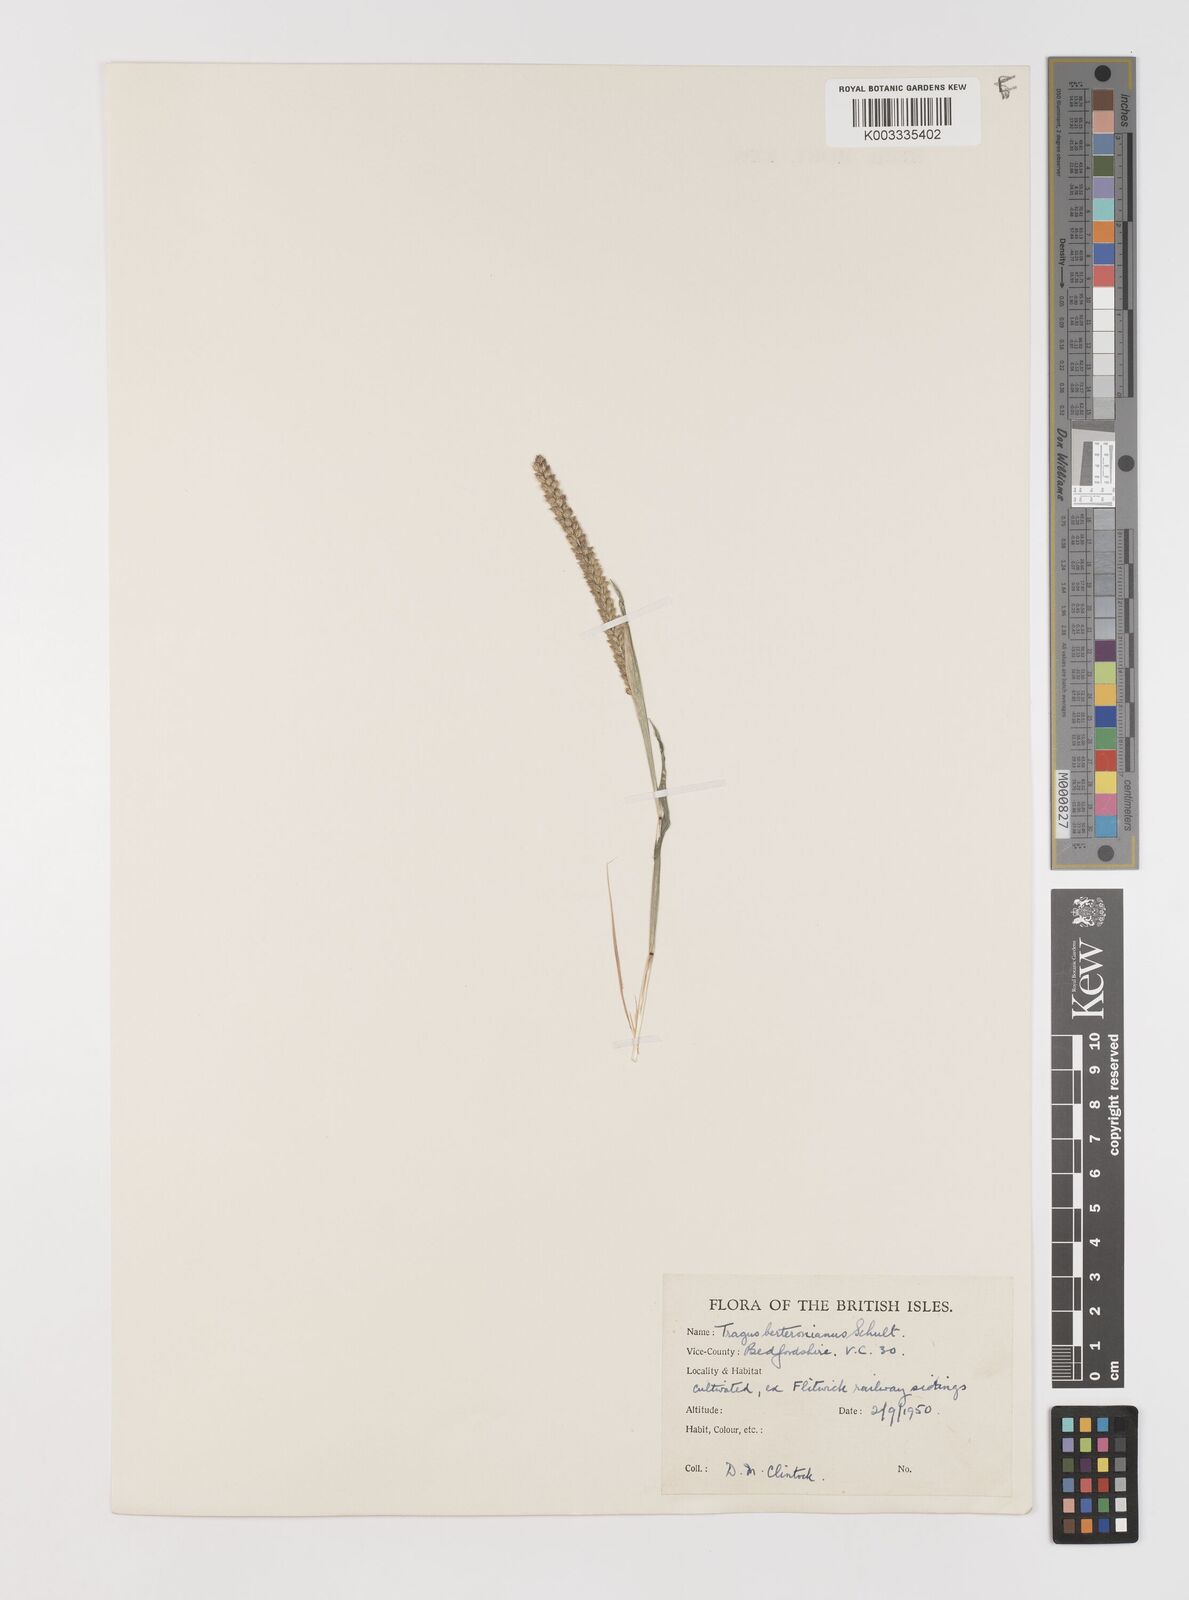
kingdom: Plantae
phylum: Tracheophyta
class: Liliopsida
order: Poales
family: Poaceae
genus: Tragus
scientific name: Tragus berteronianus
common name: African bur-grass
